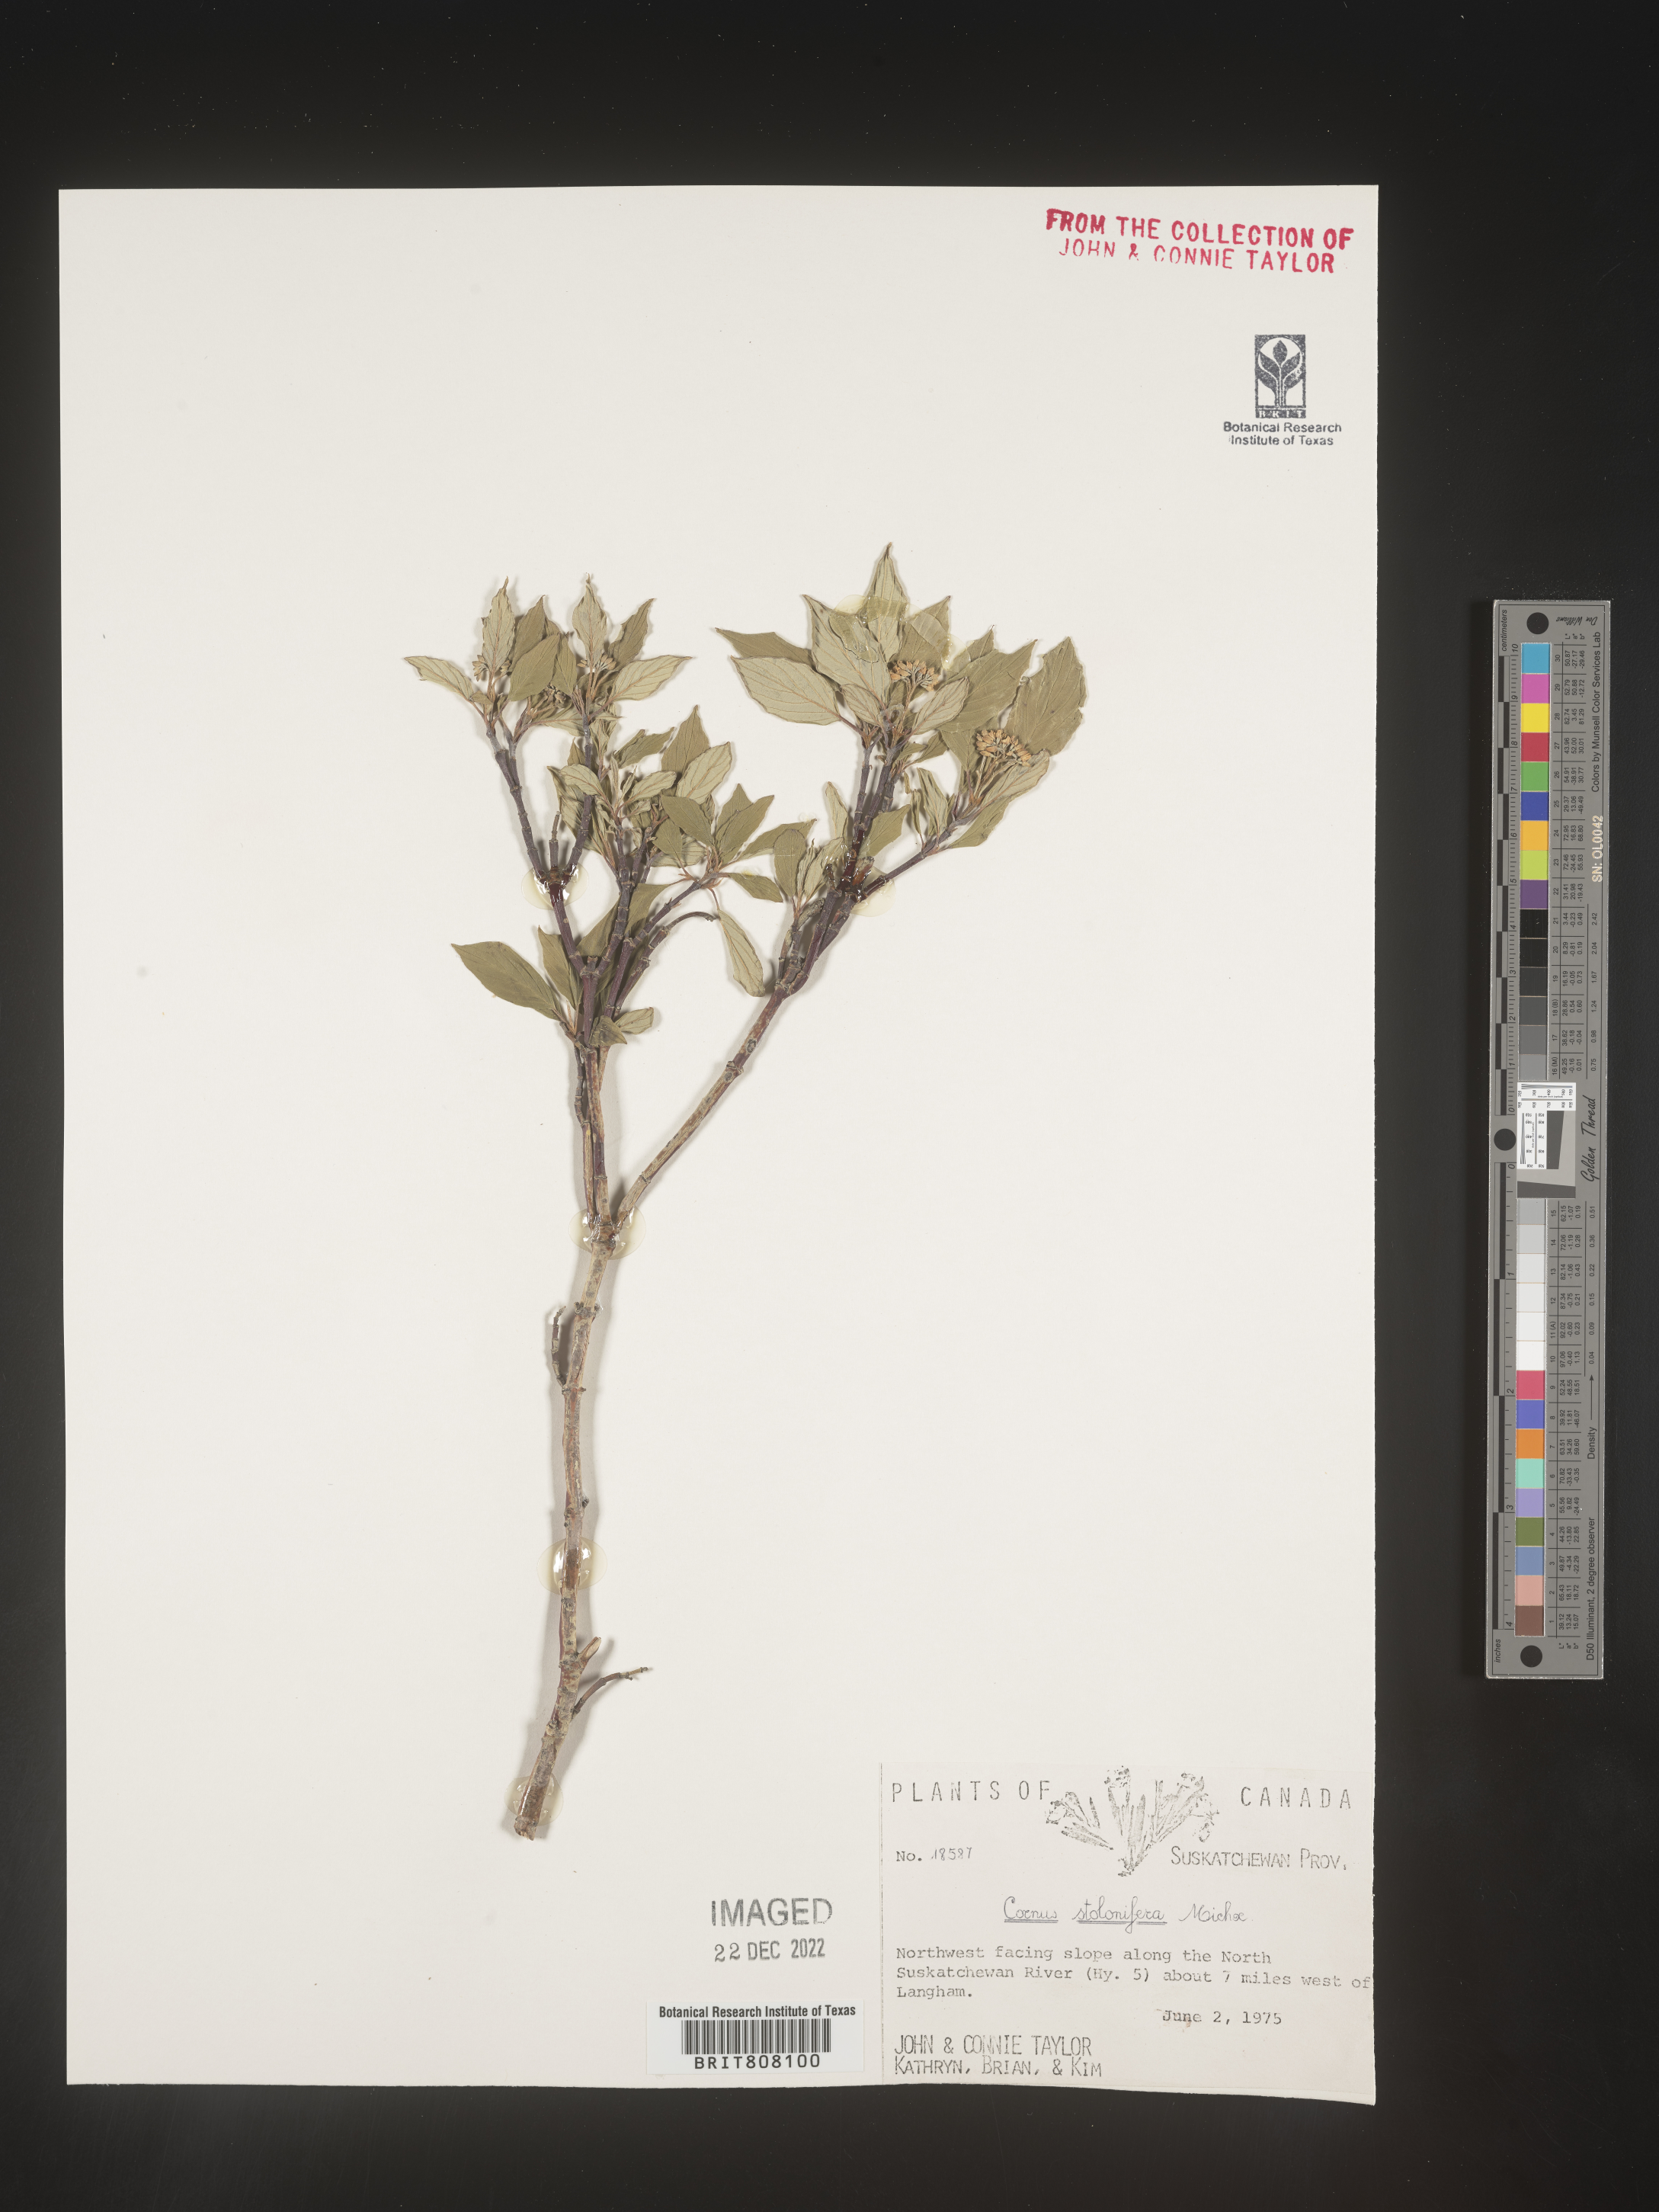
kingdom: Plantae
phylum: Tracheophyta
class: Magnoliopsida
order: Cornales
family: Cornaceae
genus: Cornus
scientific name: Cornus sericea
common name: Red-osier dogwood
